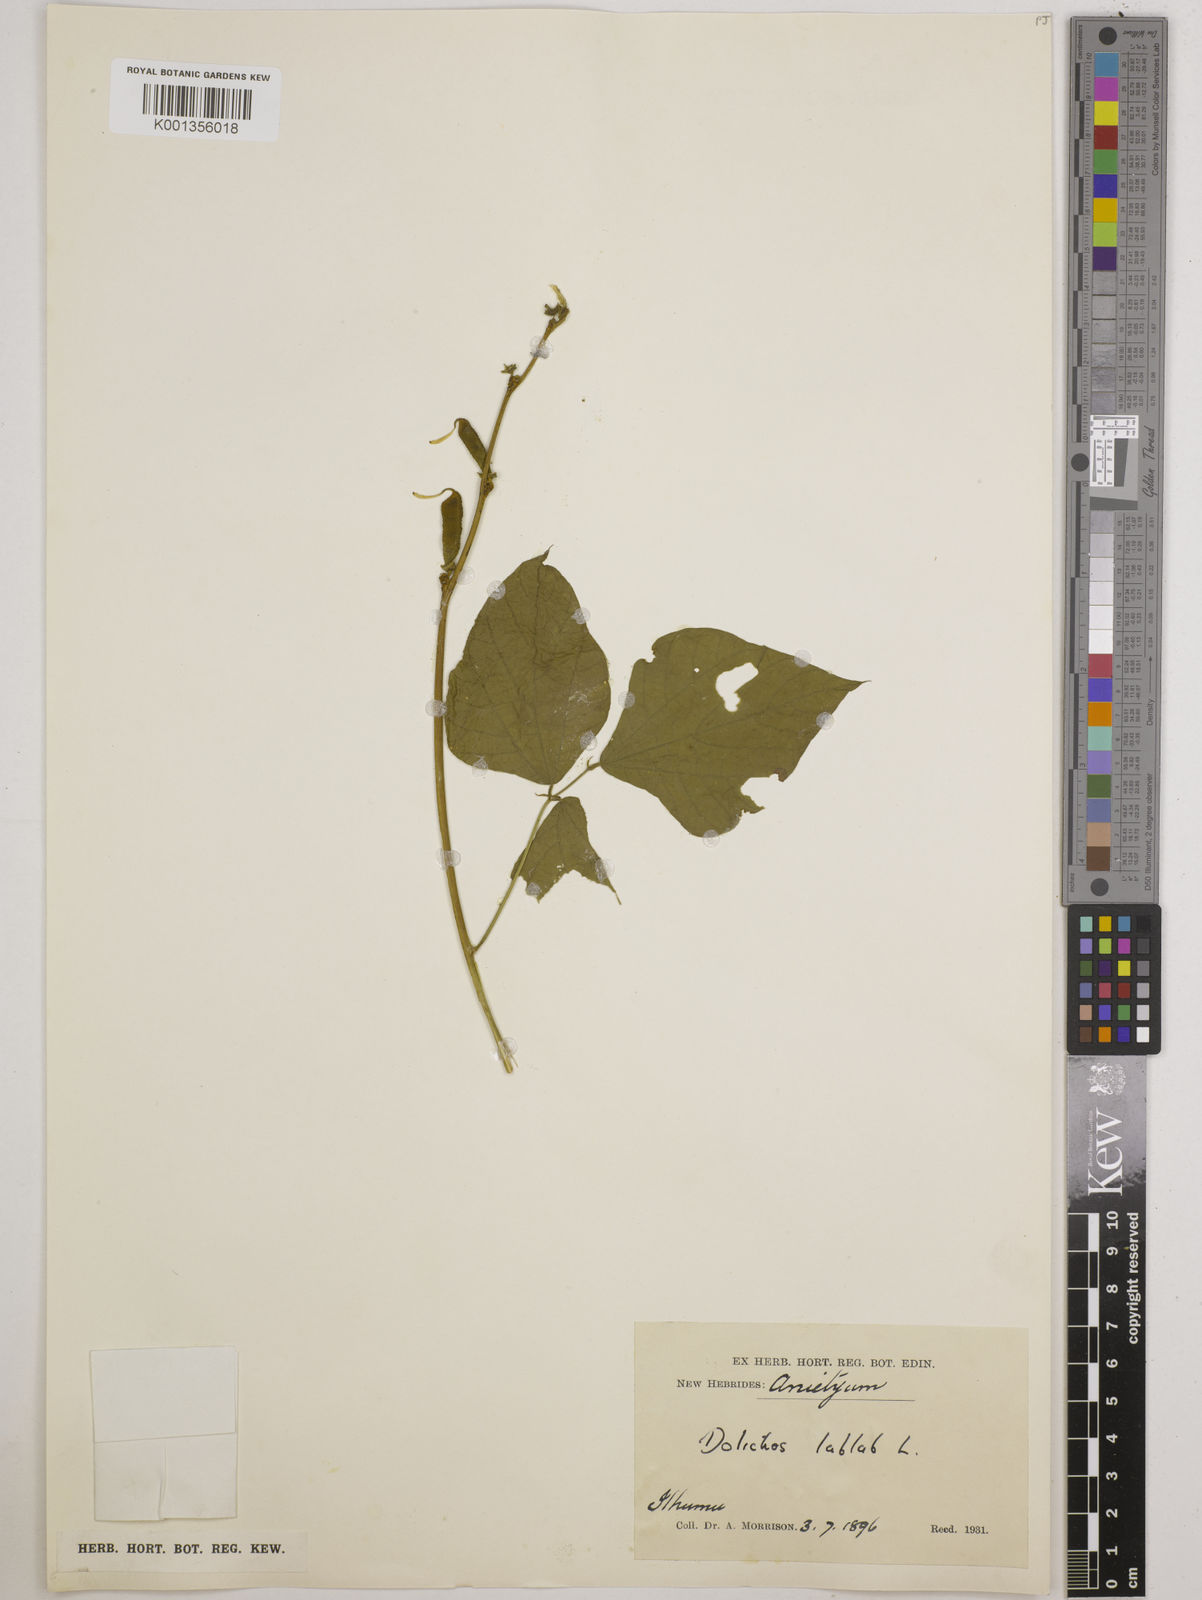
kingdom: Plantae
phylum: Tracheophyta
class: Magnoliopsida
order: Fabales
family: Fabaceae
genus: Lablab
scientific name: Lablab purpureus
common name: Lablab-bean
